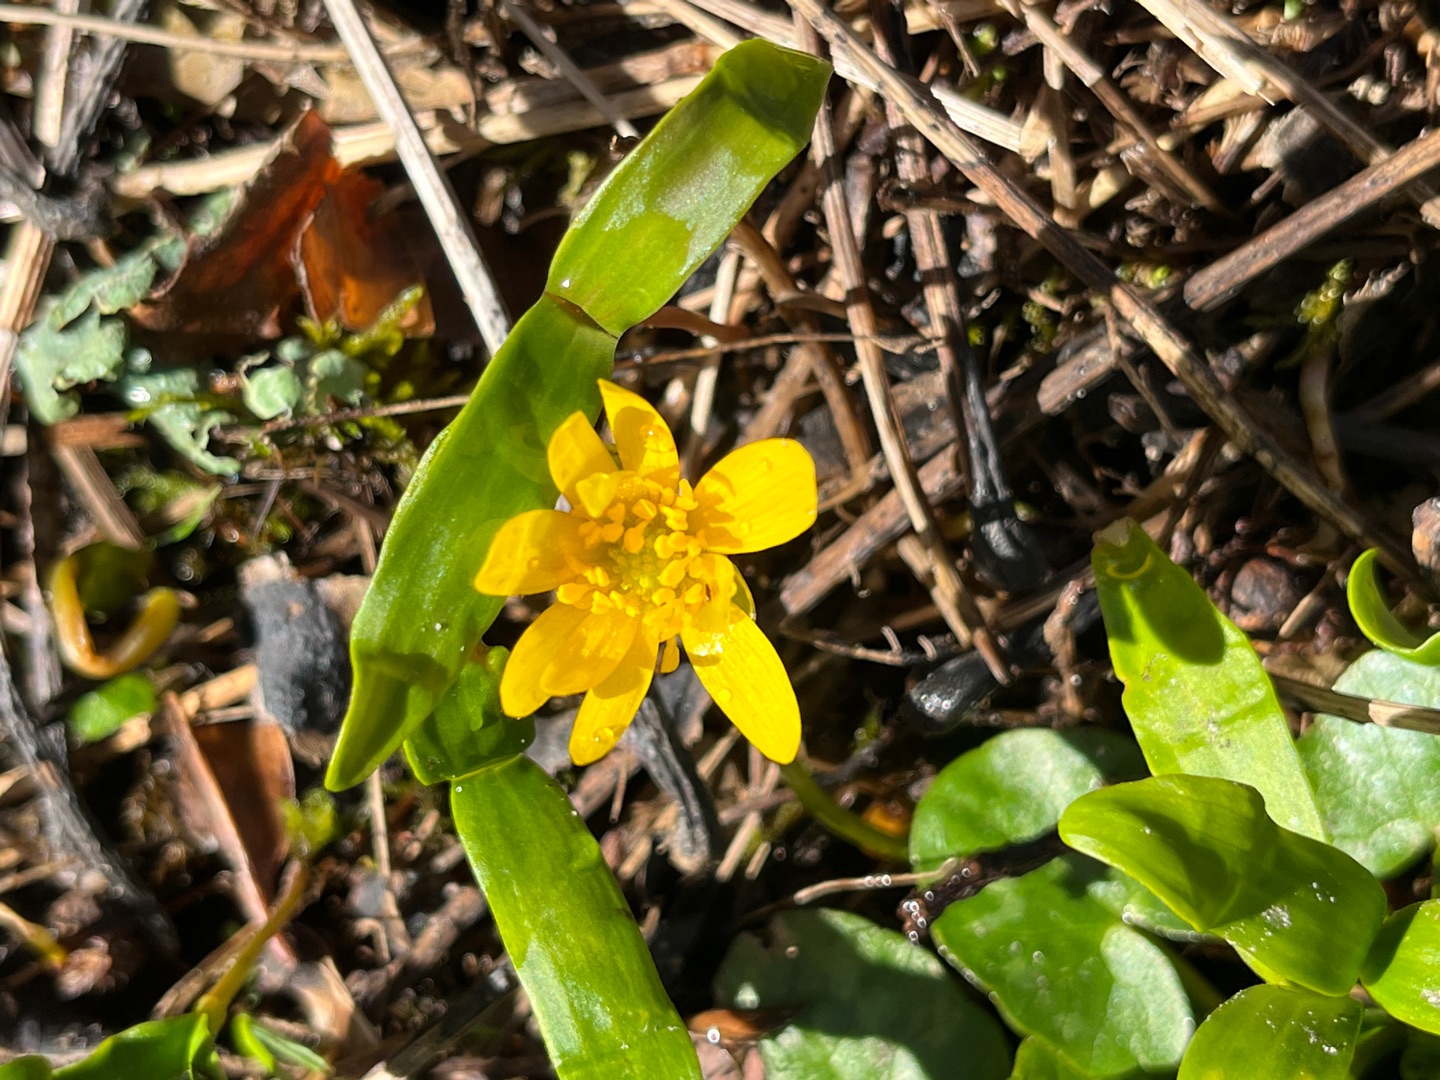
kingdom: Plantae
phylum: Tracheophyta
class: Magnoliopsida
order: Ranunculales
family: Ranunculaceae
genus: Ficaria
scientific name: Ficaria verna
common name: Vorterod
